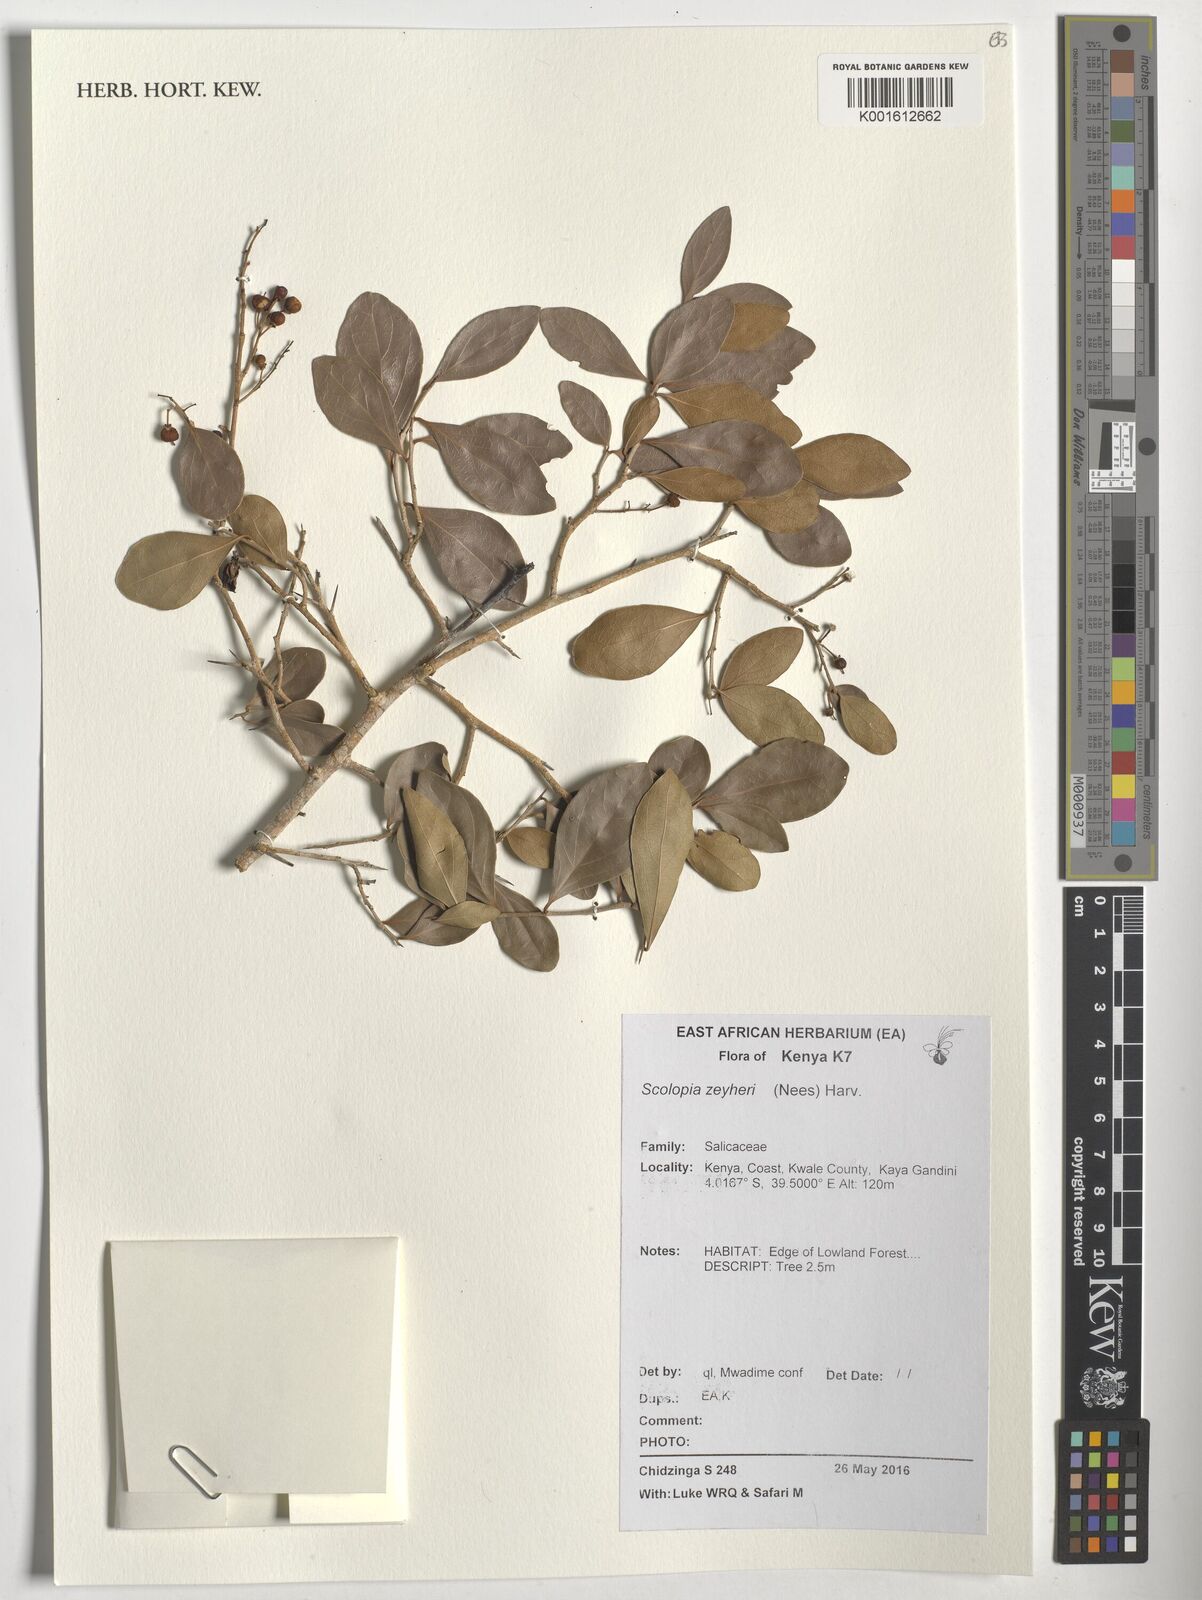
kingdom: Plantae
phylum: Tracheophyta
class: Magnoliopsida
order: Malpighiales
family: Salicaceae
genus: Scolopia
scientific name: Scolopia zeyheri
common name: Thorn pear
